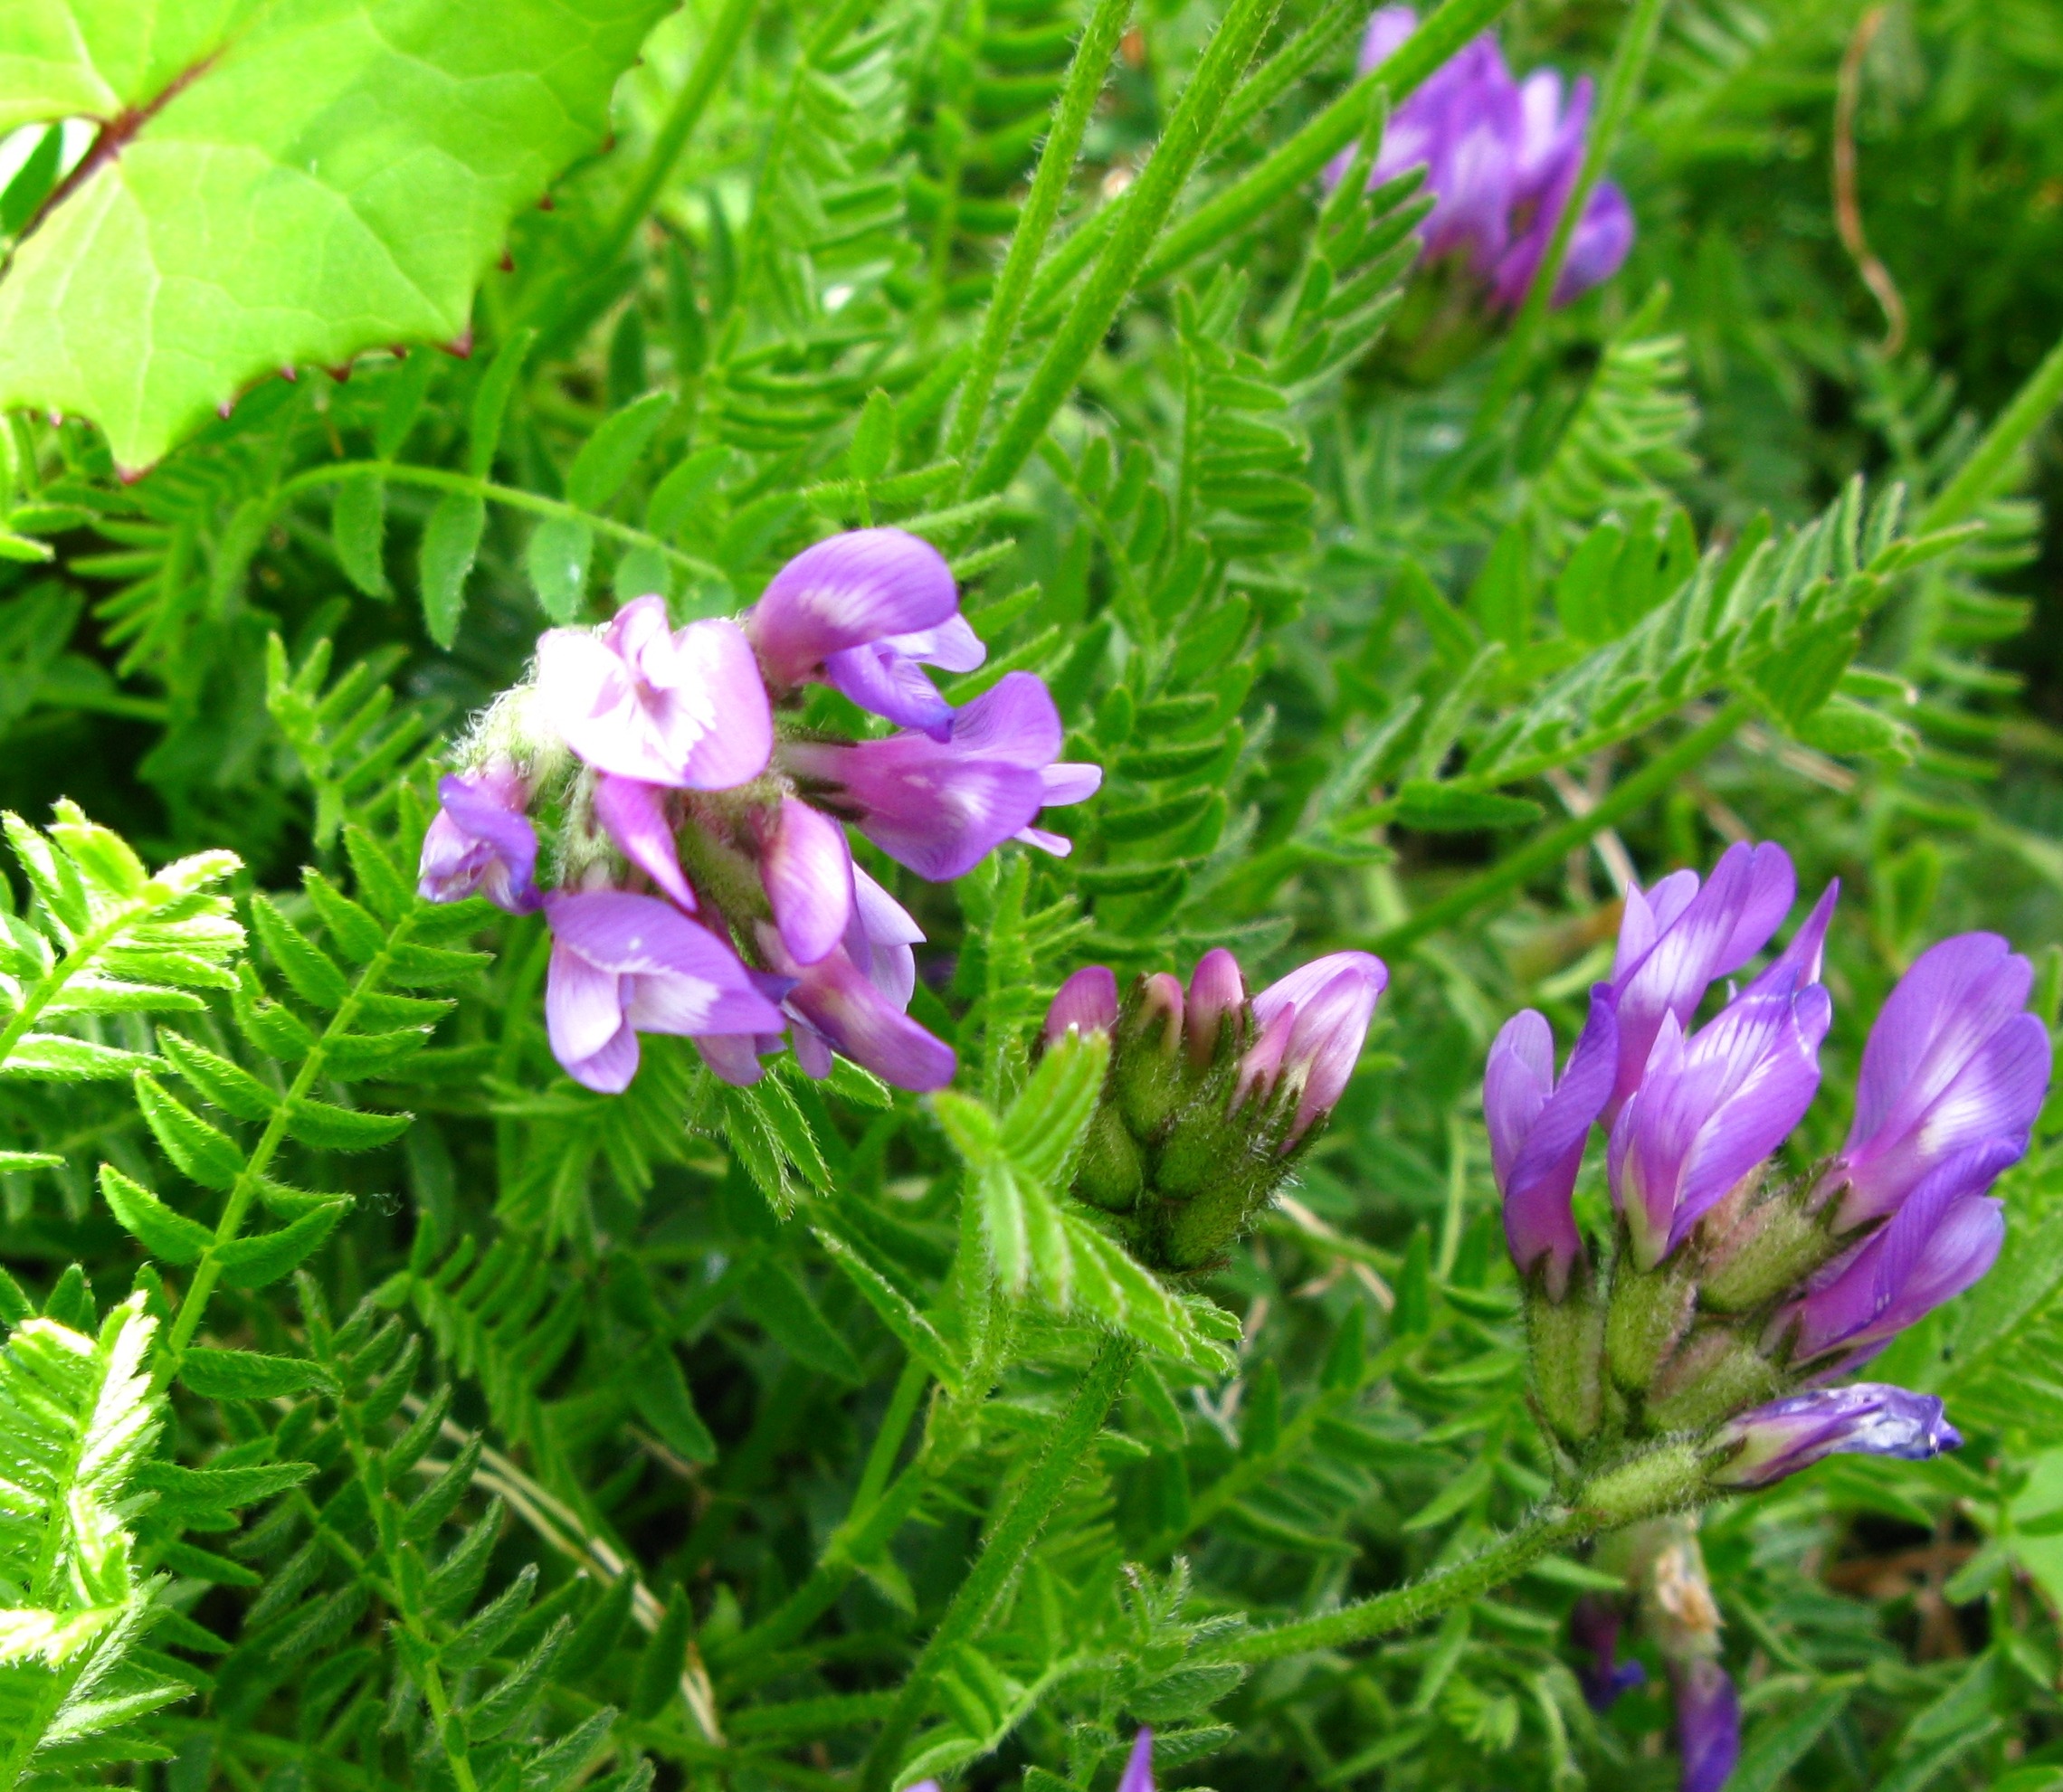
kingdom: Plantae
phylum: Tracheophyta
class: Magnoliopsida
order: Fabales
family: Fabaceae
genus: Astragalus
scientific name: Astragalus danicus
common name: Dansk astragel
